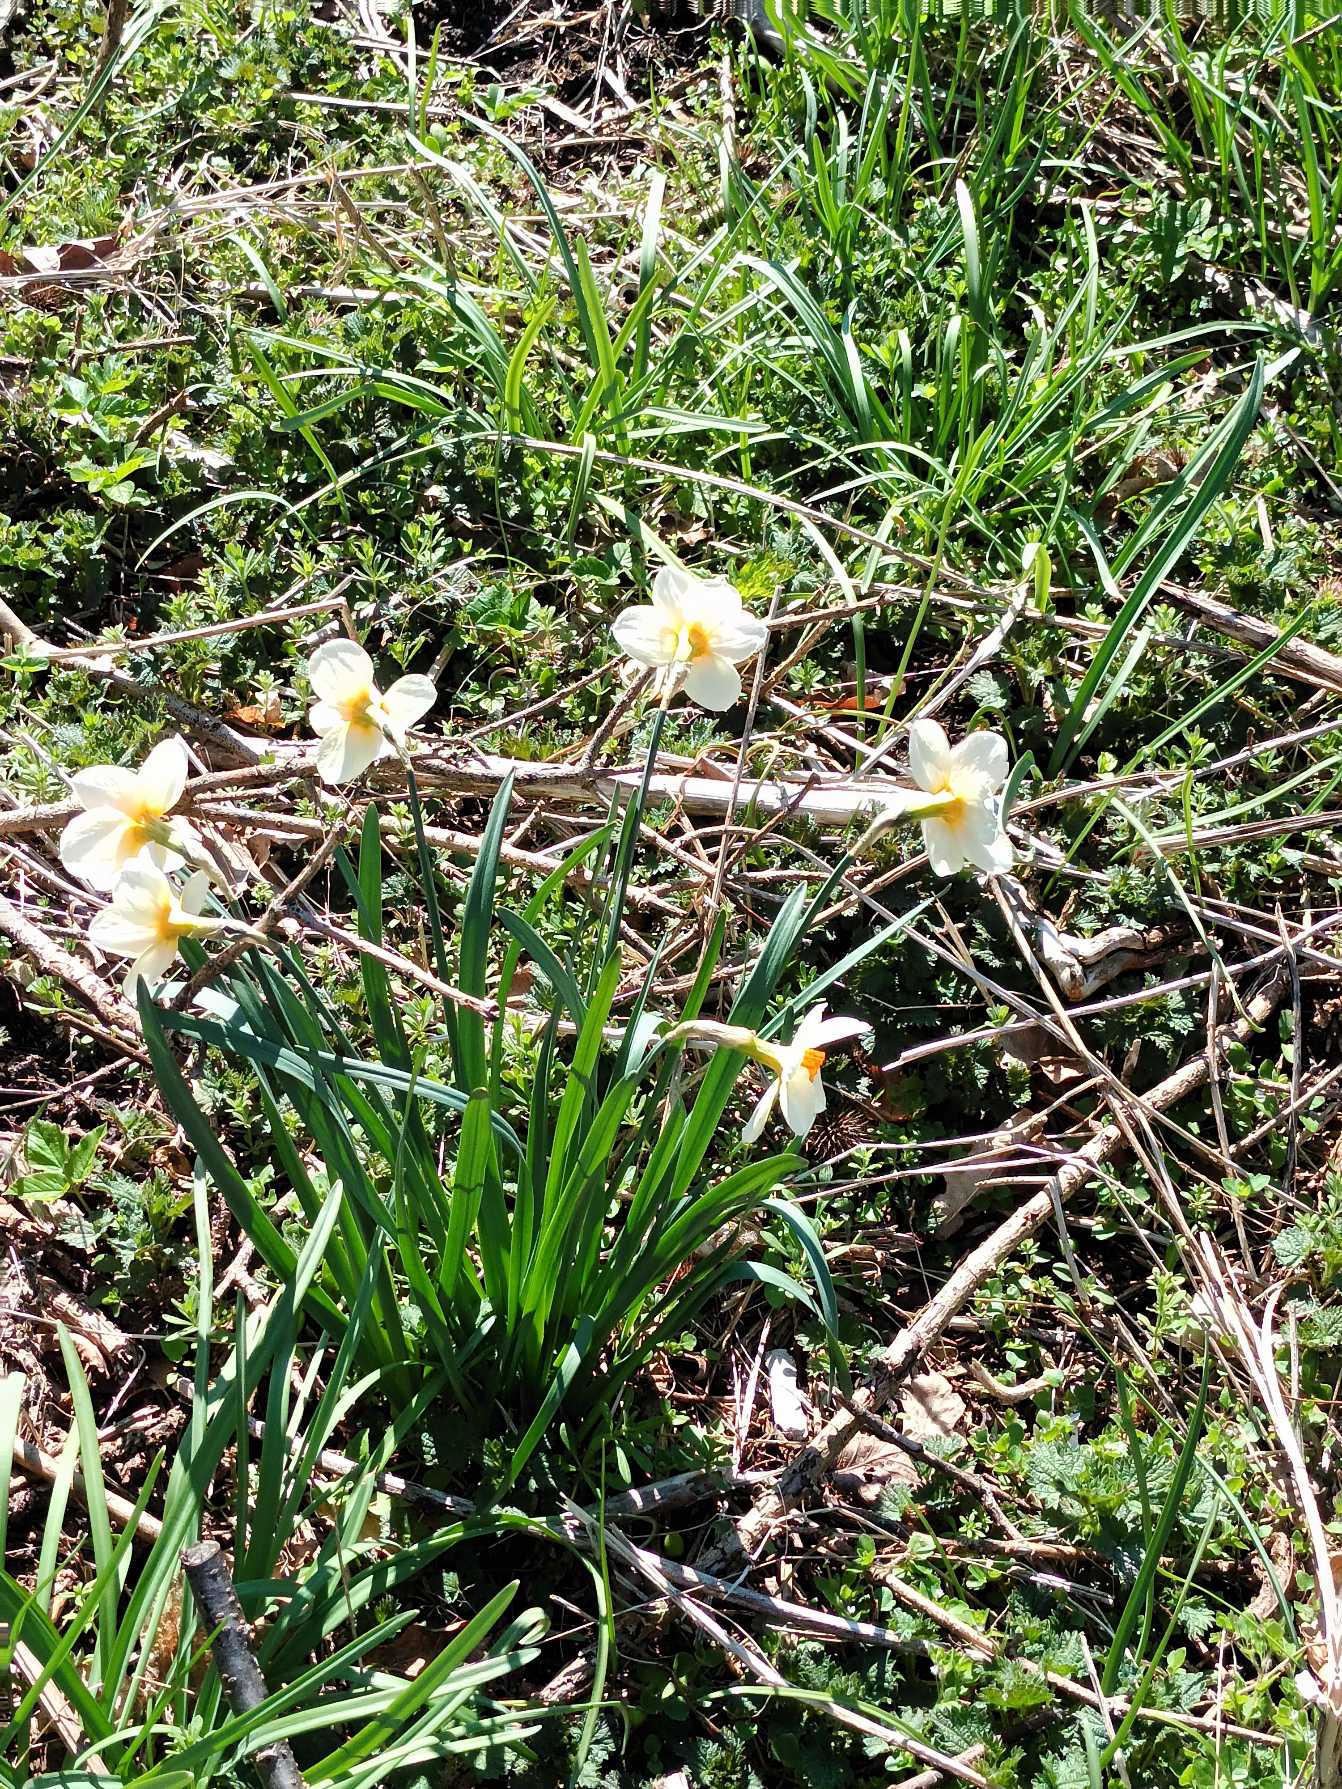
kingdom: Plantae
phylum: Tracheophyta
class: Liliopsida
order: Asparagales
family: Amaryllidaceae
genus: Narcissus
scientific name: Narcissus
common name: Narcisslægten
